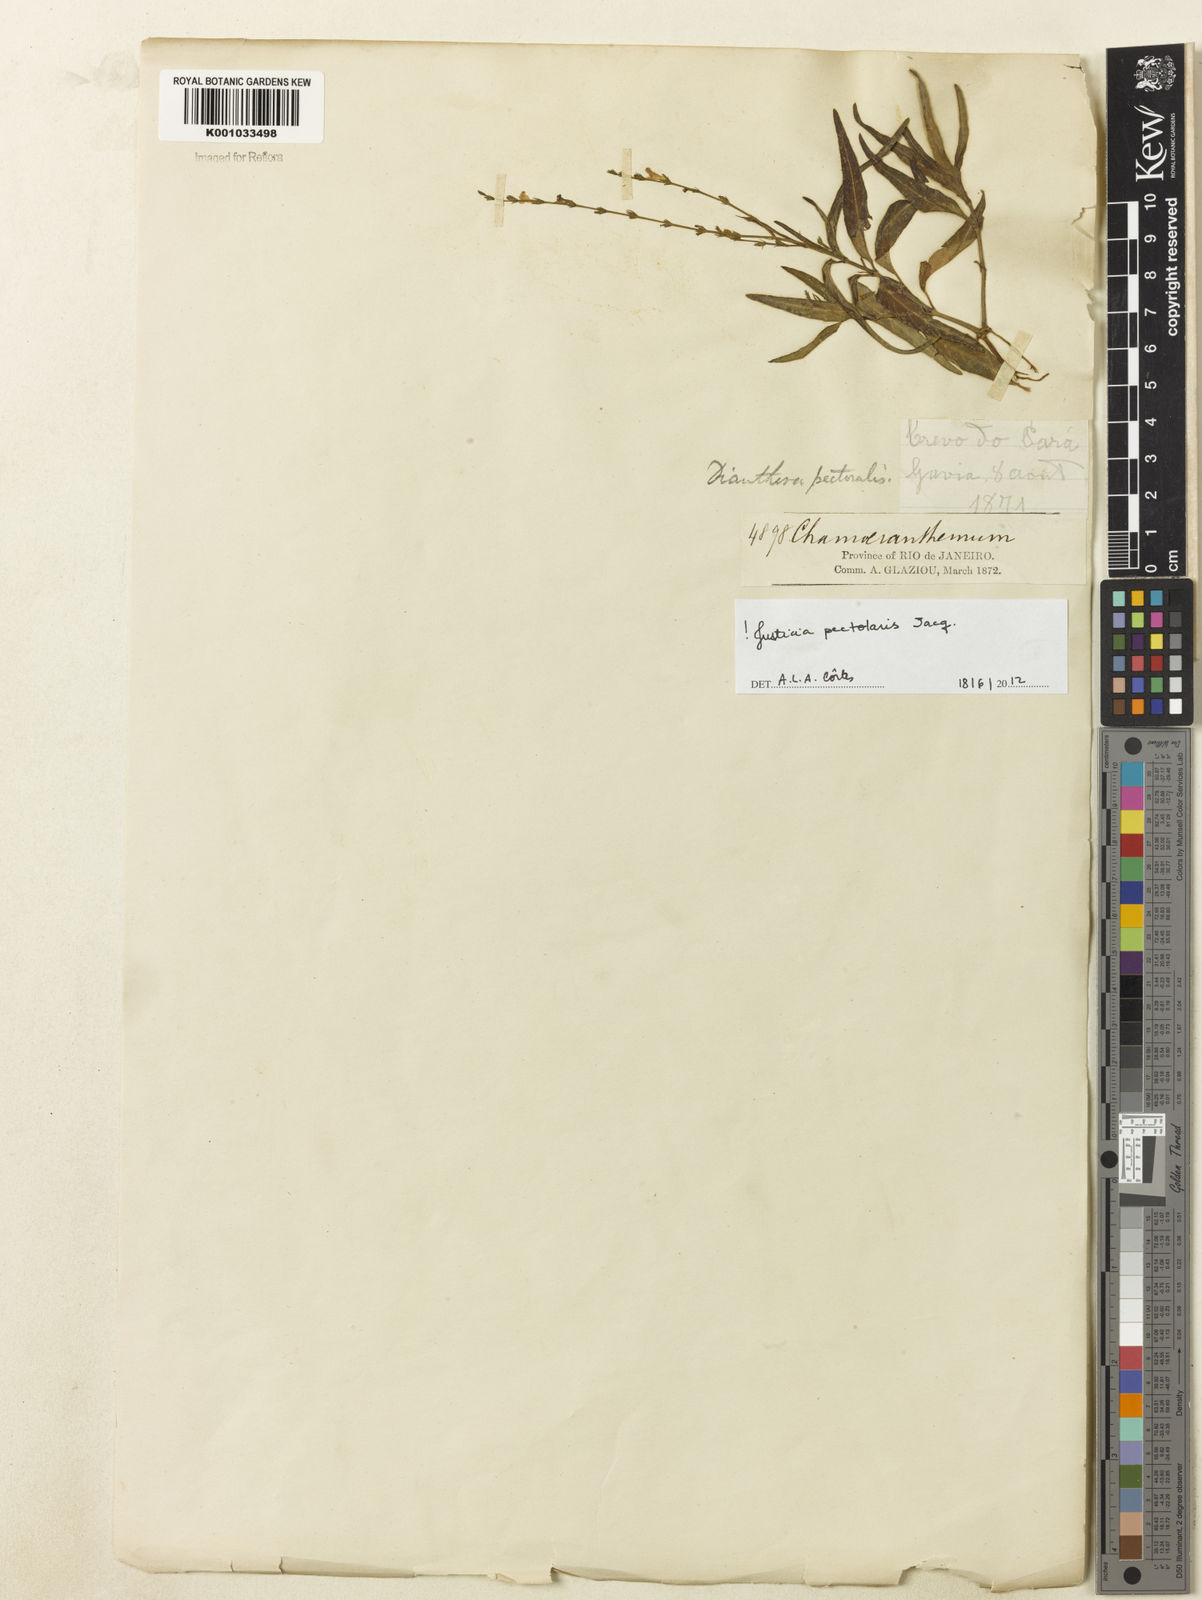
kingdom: Plantae
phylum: Tracheophyta
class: Magnoliopsida
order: Lamiales
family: Acanthaceae
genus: Dianthera
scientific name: Dianthera pectoralis
